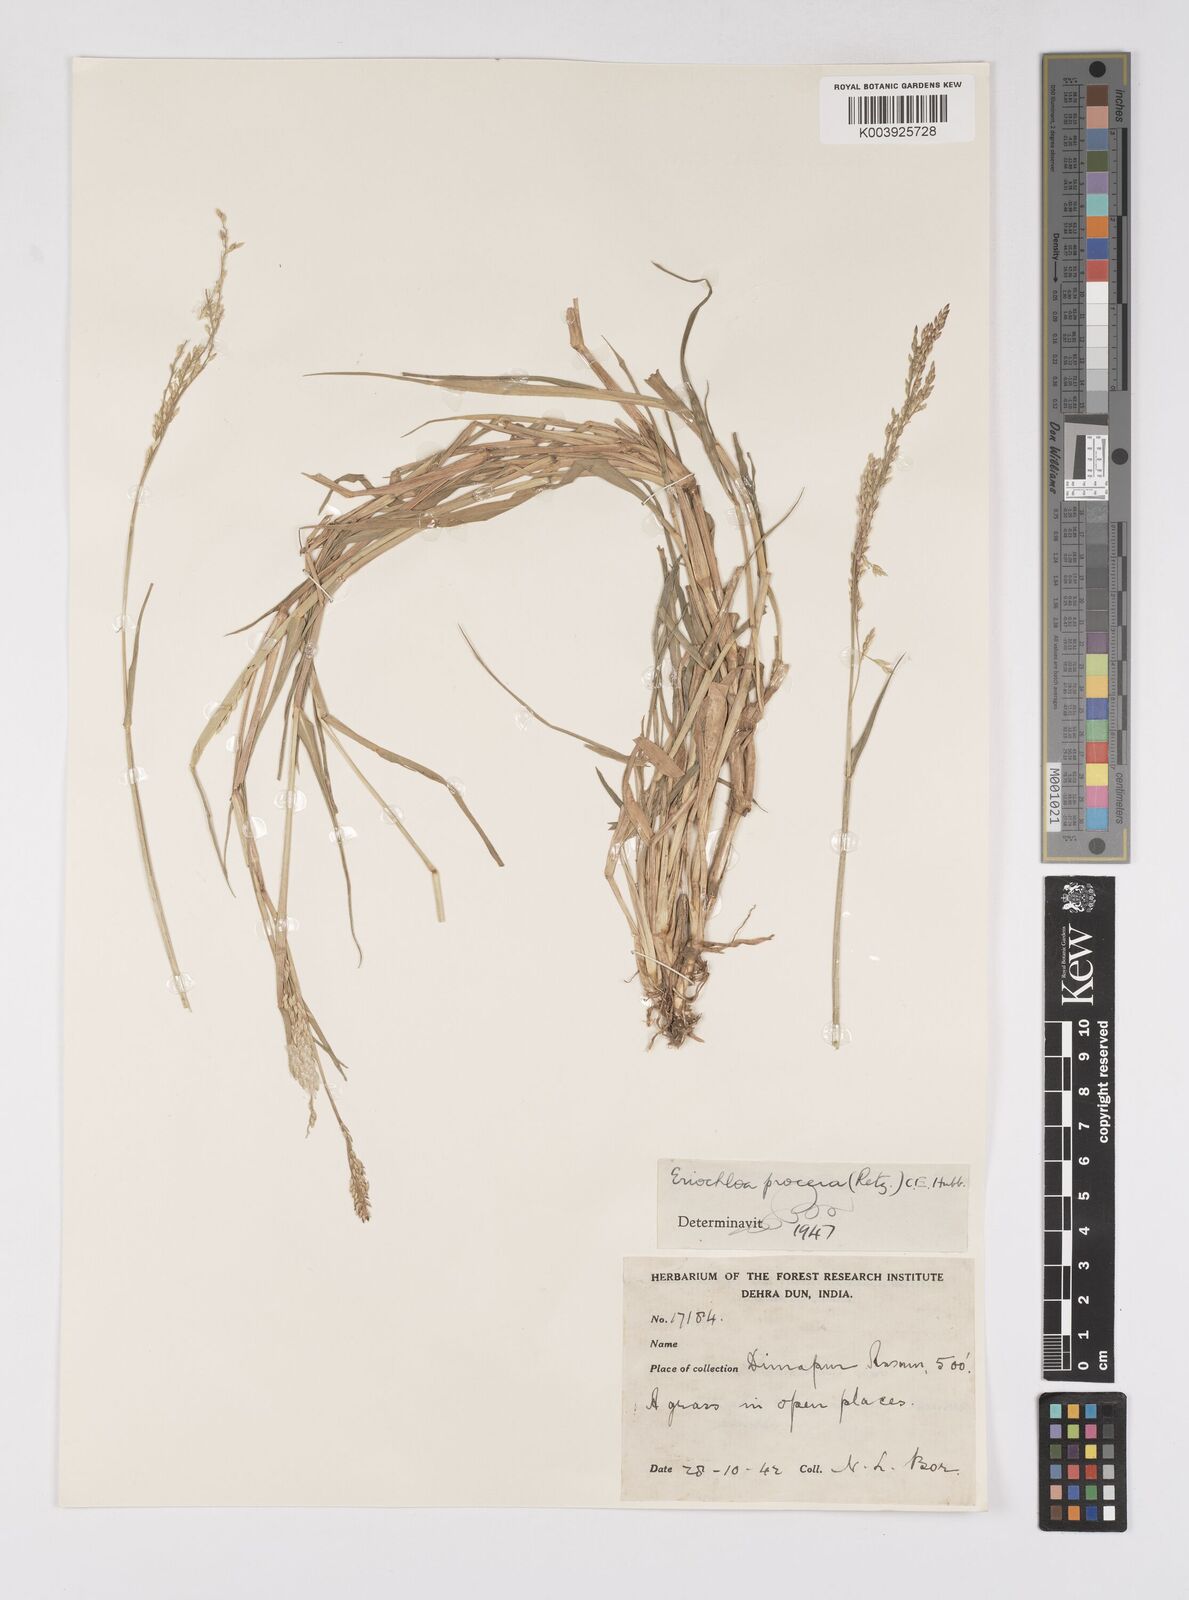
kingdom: Plantae
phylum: Tracheophyta
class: Liliopsida
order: Poales
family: Poaceae
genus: Eriochloa
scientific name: Eriochloa procera
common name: Spring grass
